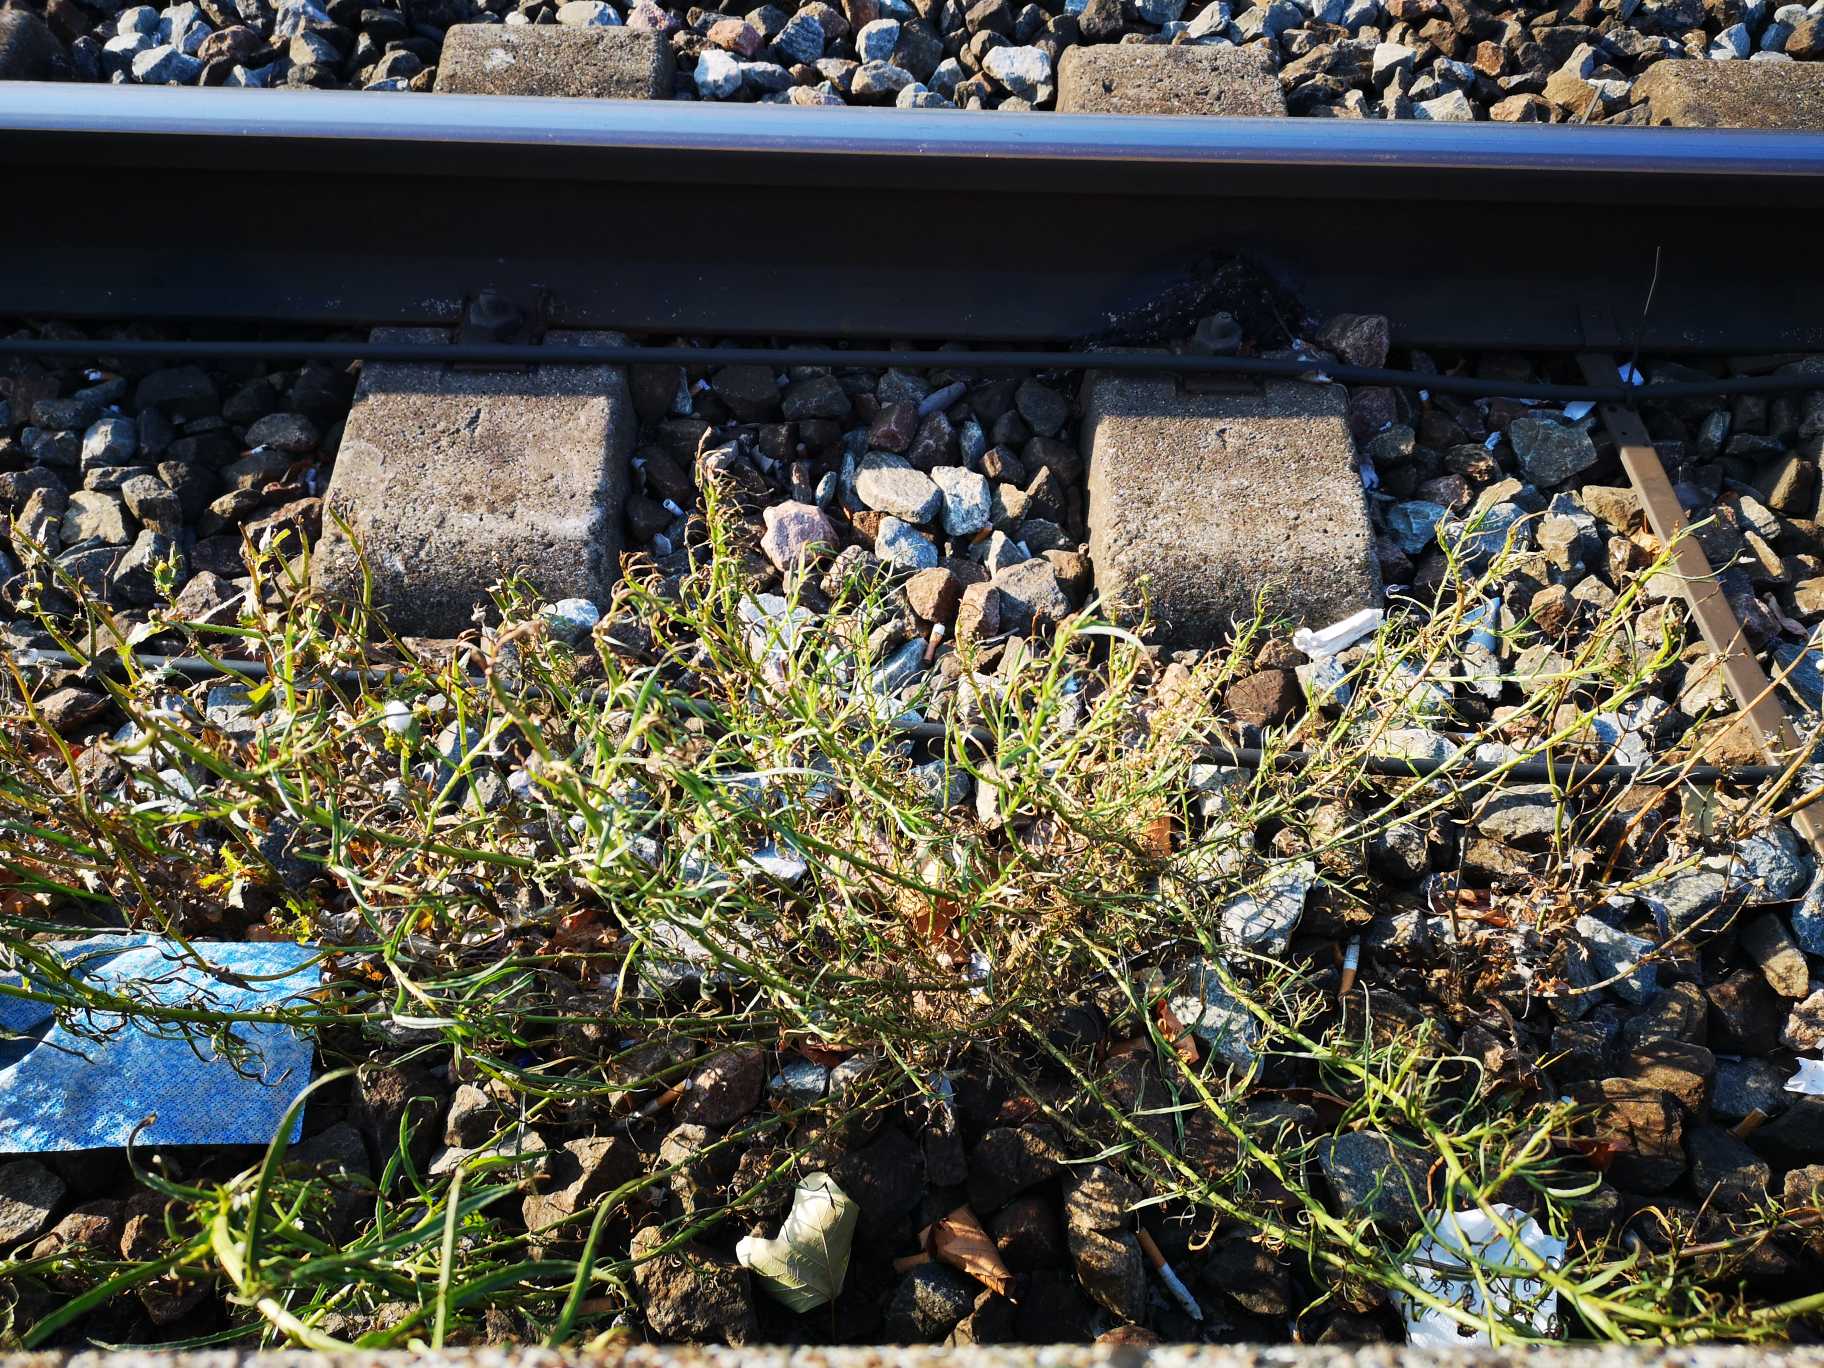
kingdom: Plantae
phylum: Tracheophyta
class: Magnoliopsida
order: Asterales
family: Asteraceae
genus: Senecio
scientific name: Senecio inaequidens
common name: Smalbladet brandbæger
